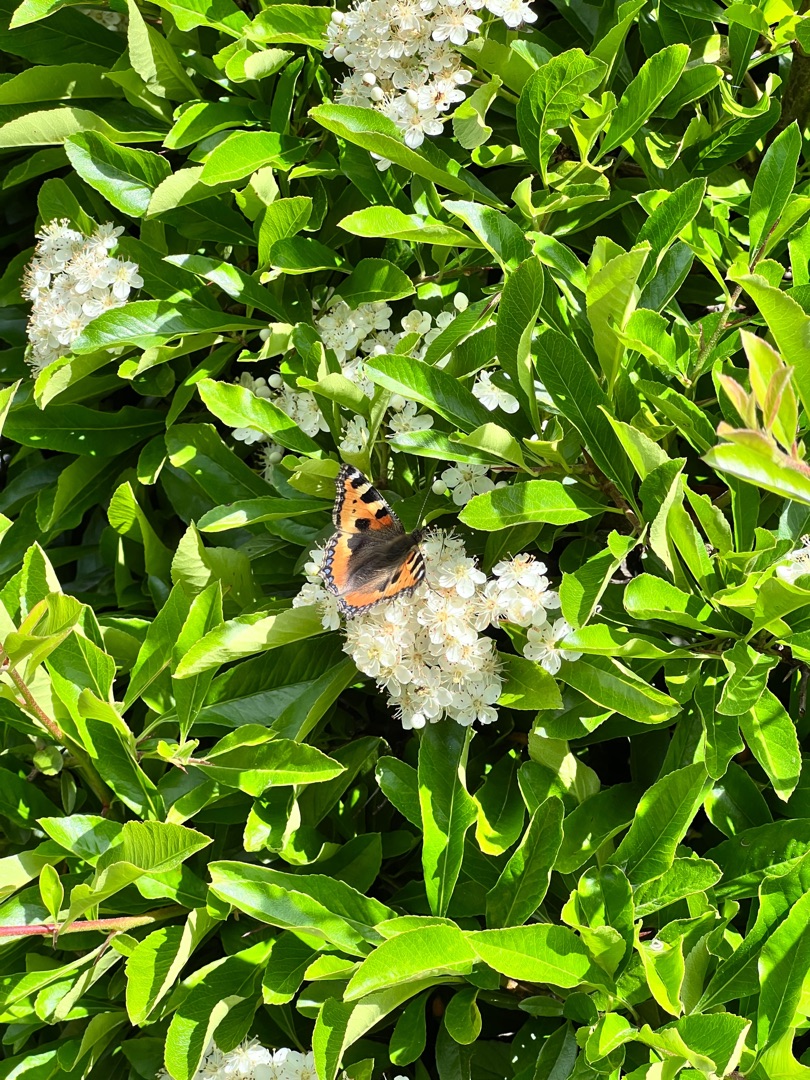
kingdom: Animalia
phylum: Arthropoda
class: Insecta
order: Lepidoptera
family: Nymphalidae
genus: Aglais
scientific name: Aglais urticae
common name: Nældens takvinge
